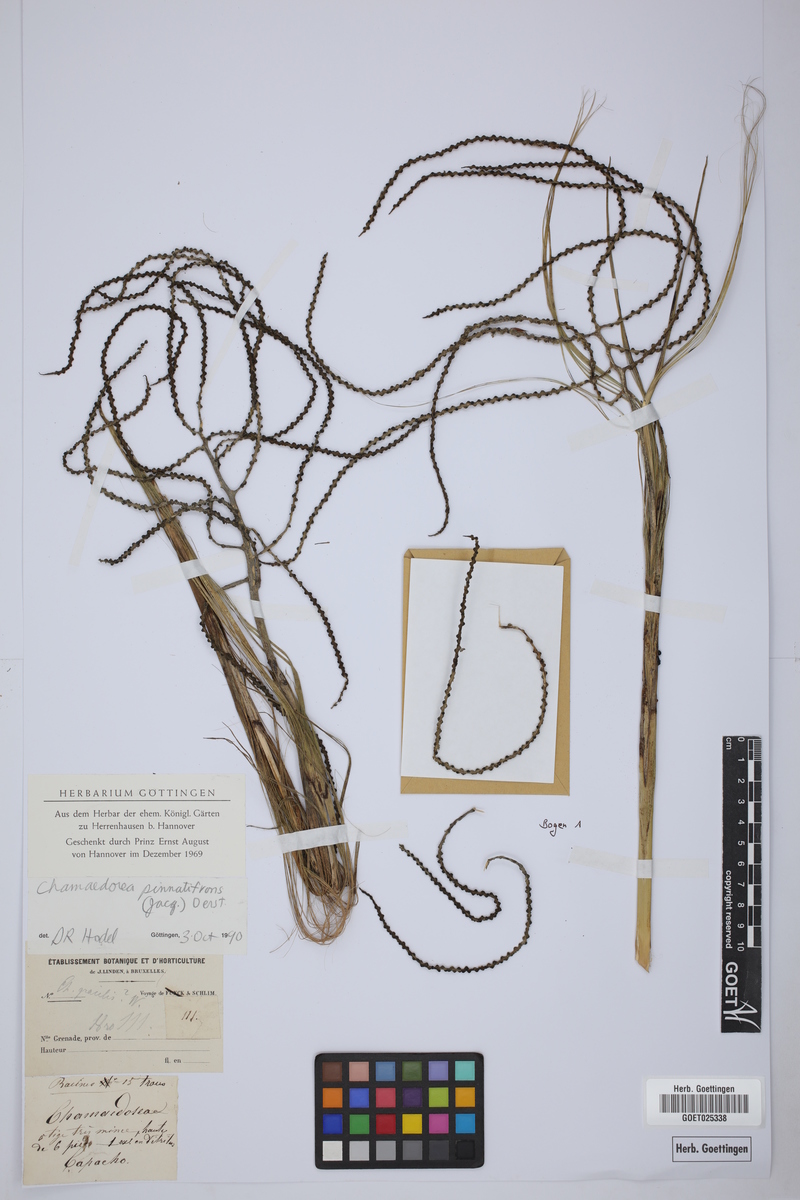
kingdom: Plantae
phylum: Tracheophyta
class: Liliopsida
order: Arecales
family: Arecaceae
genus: Chamaedorea
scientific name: Chamaedorea pinnatifrons
